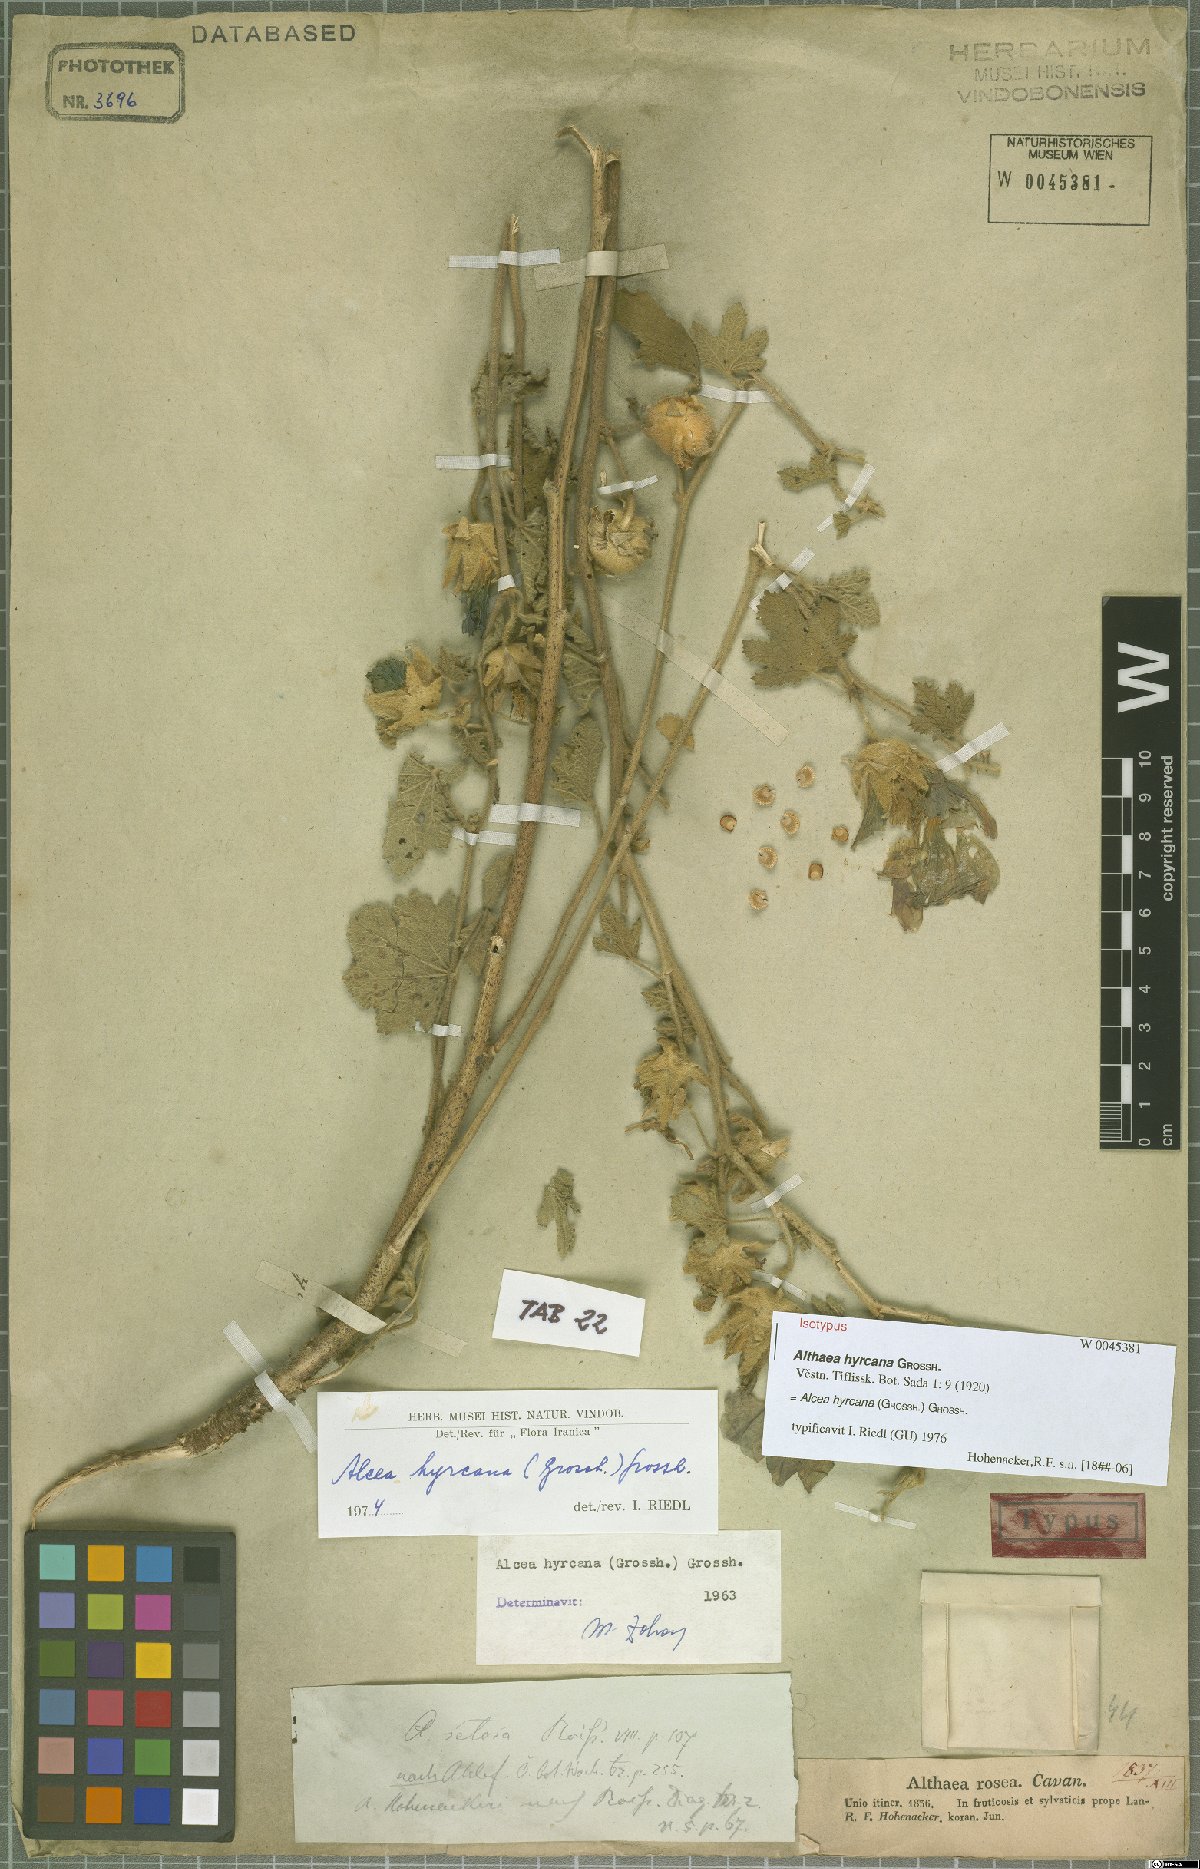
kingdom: Plantae
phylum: Tracheophyta
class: Magnoliopsida
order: Malvales
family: Malvaceae
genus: Alcea
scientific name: Alcea hyrcana
